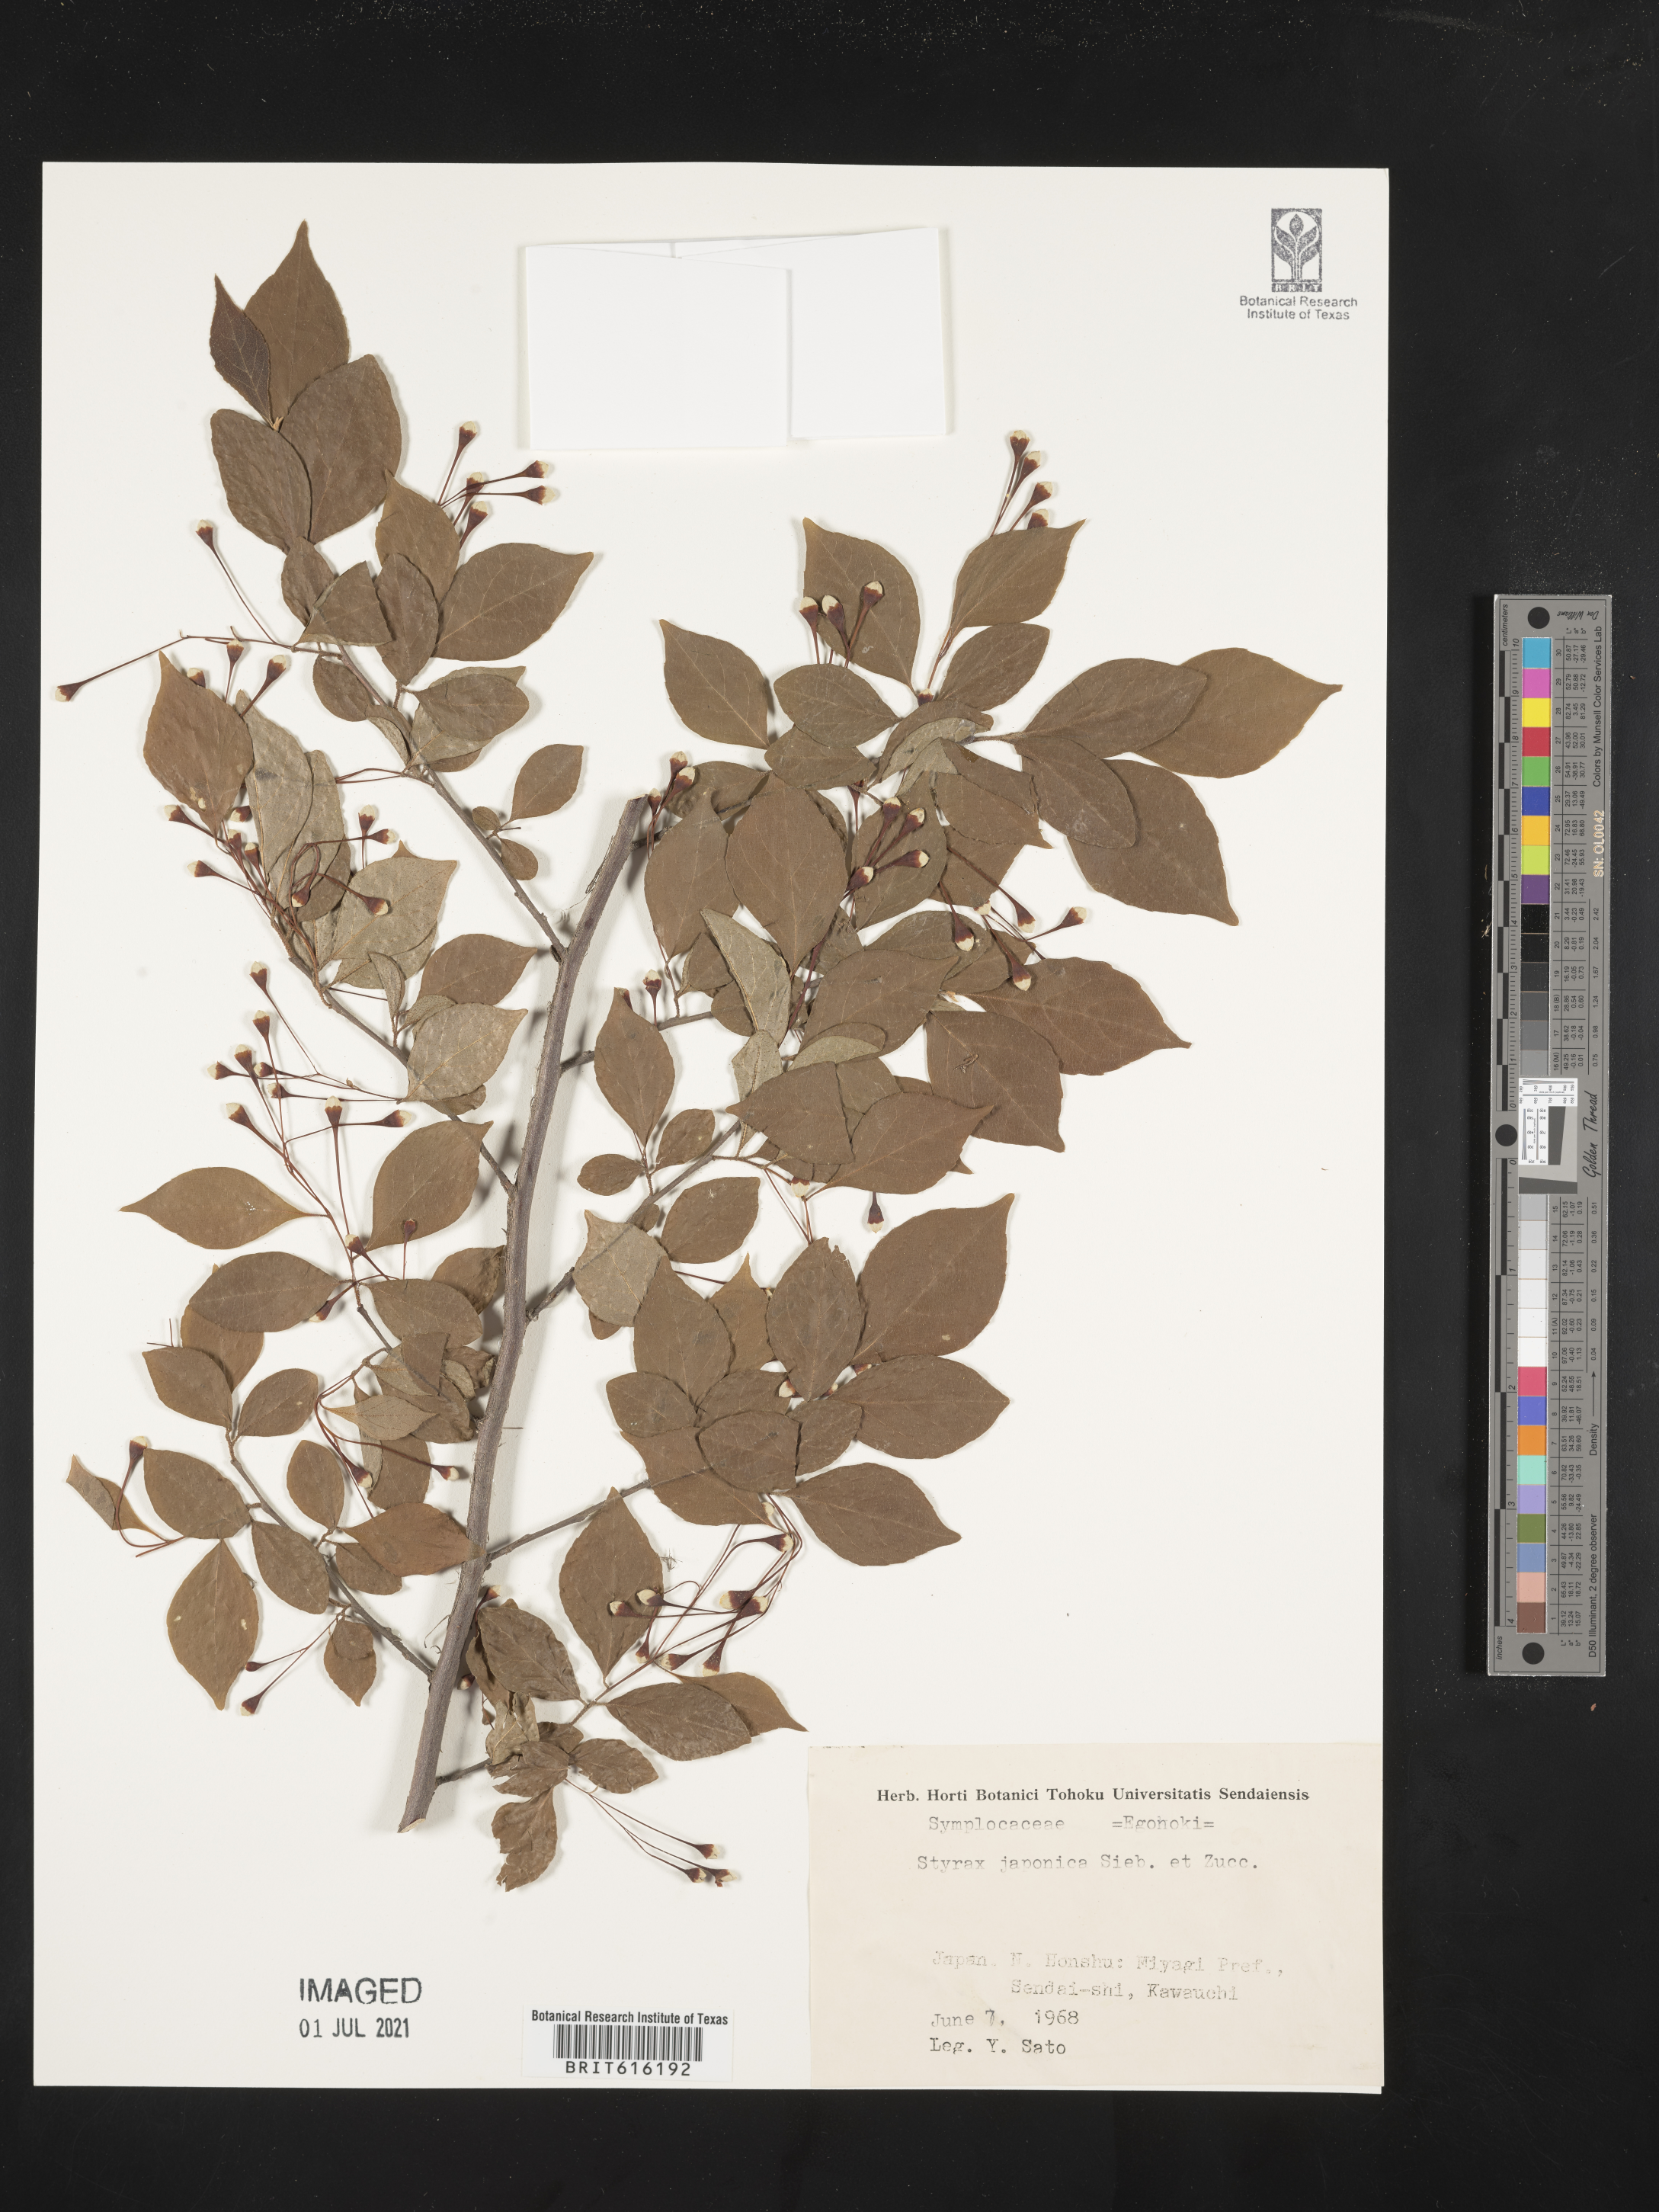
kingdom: Plantae
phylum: Tracheophyta
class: Magnoliopsida
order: Ericales
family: Styracaceae
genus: Styrax
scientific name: Styrax japonicus
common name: Japanese snowbell
